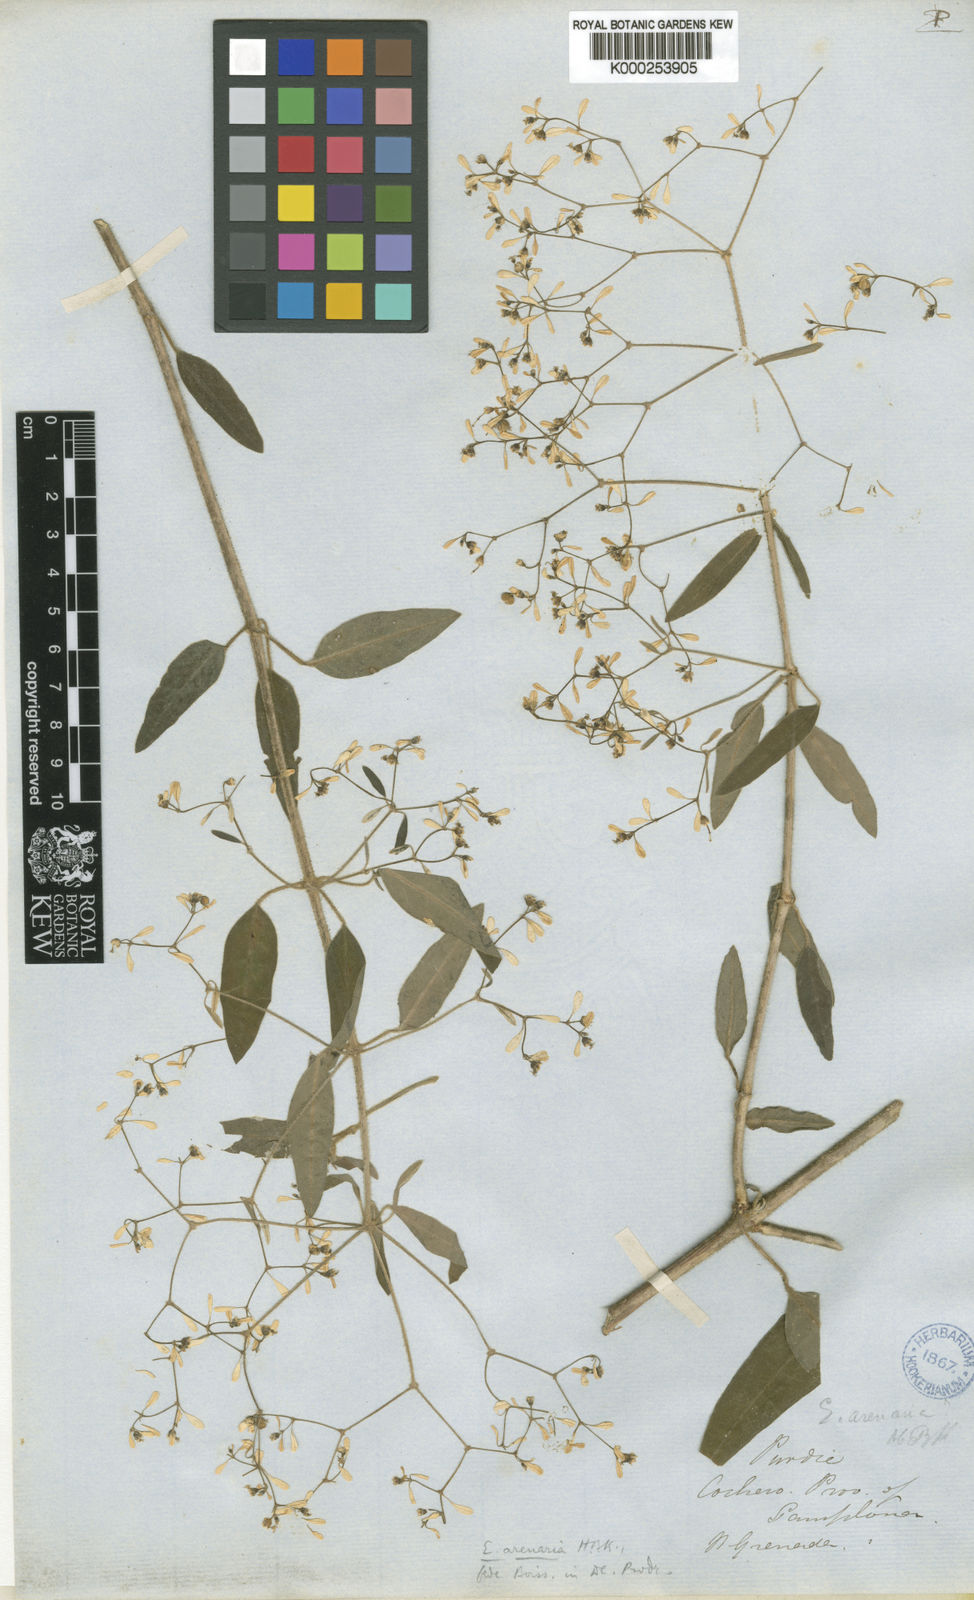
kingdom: Plantae
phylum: Tracheophyta
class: Magnoliopsida
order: Malpighiales
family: Euphorbiaceae
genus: Euphorbia
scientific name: Euphorbia arenaria
